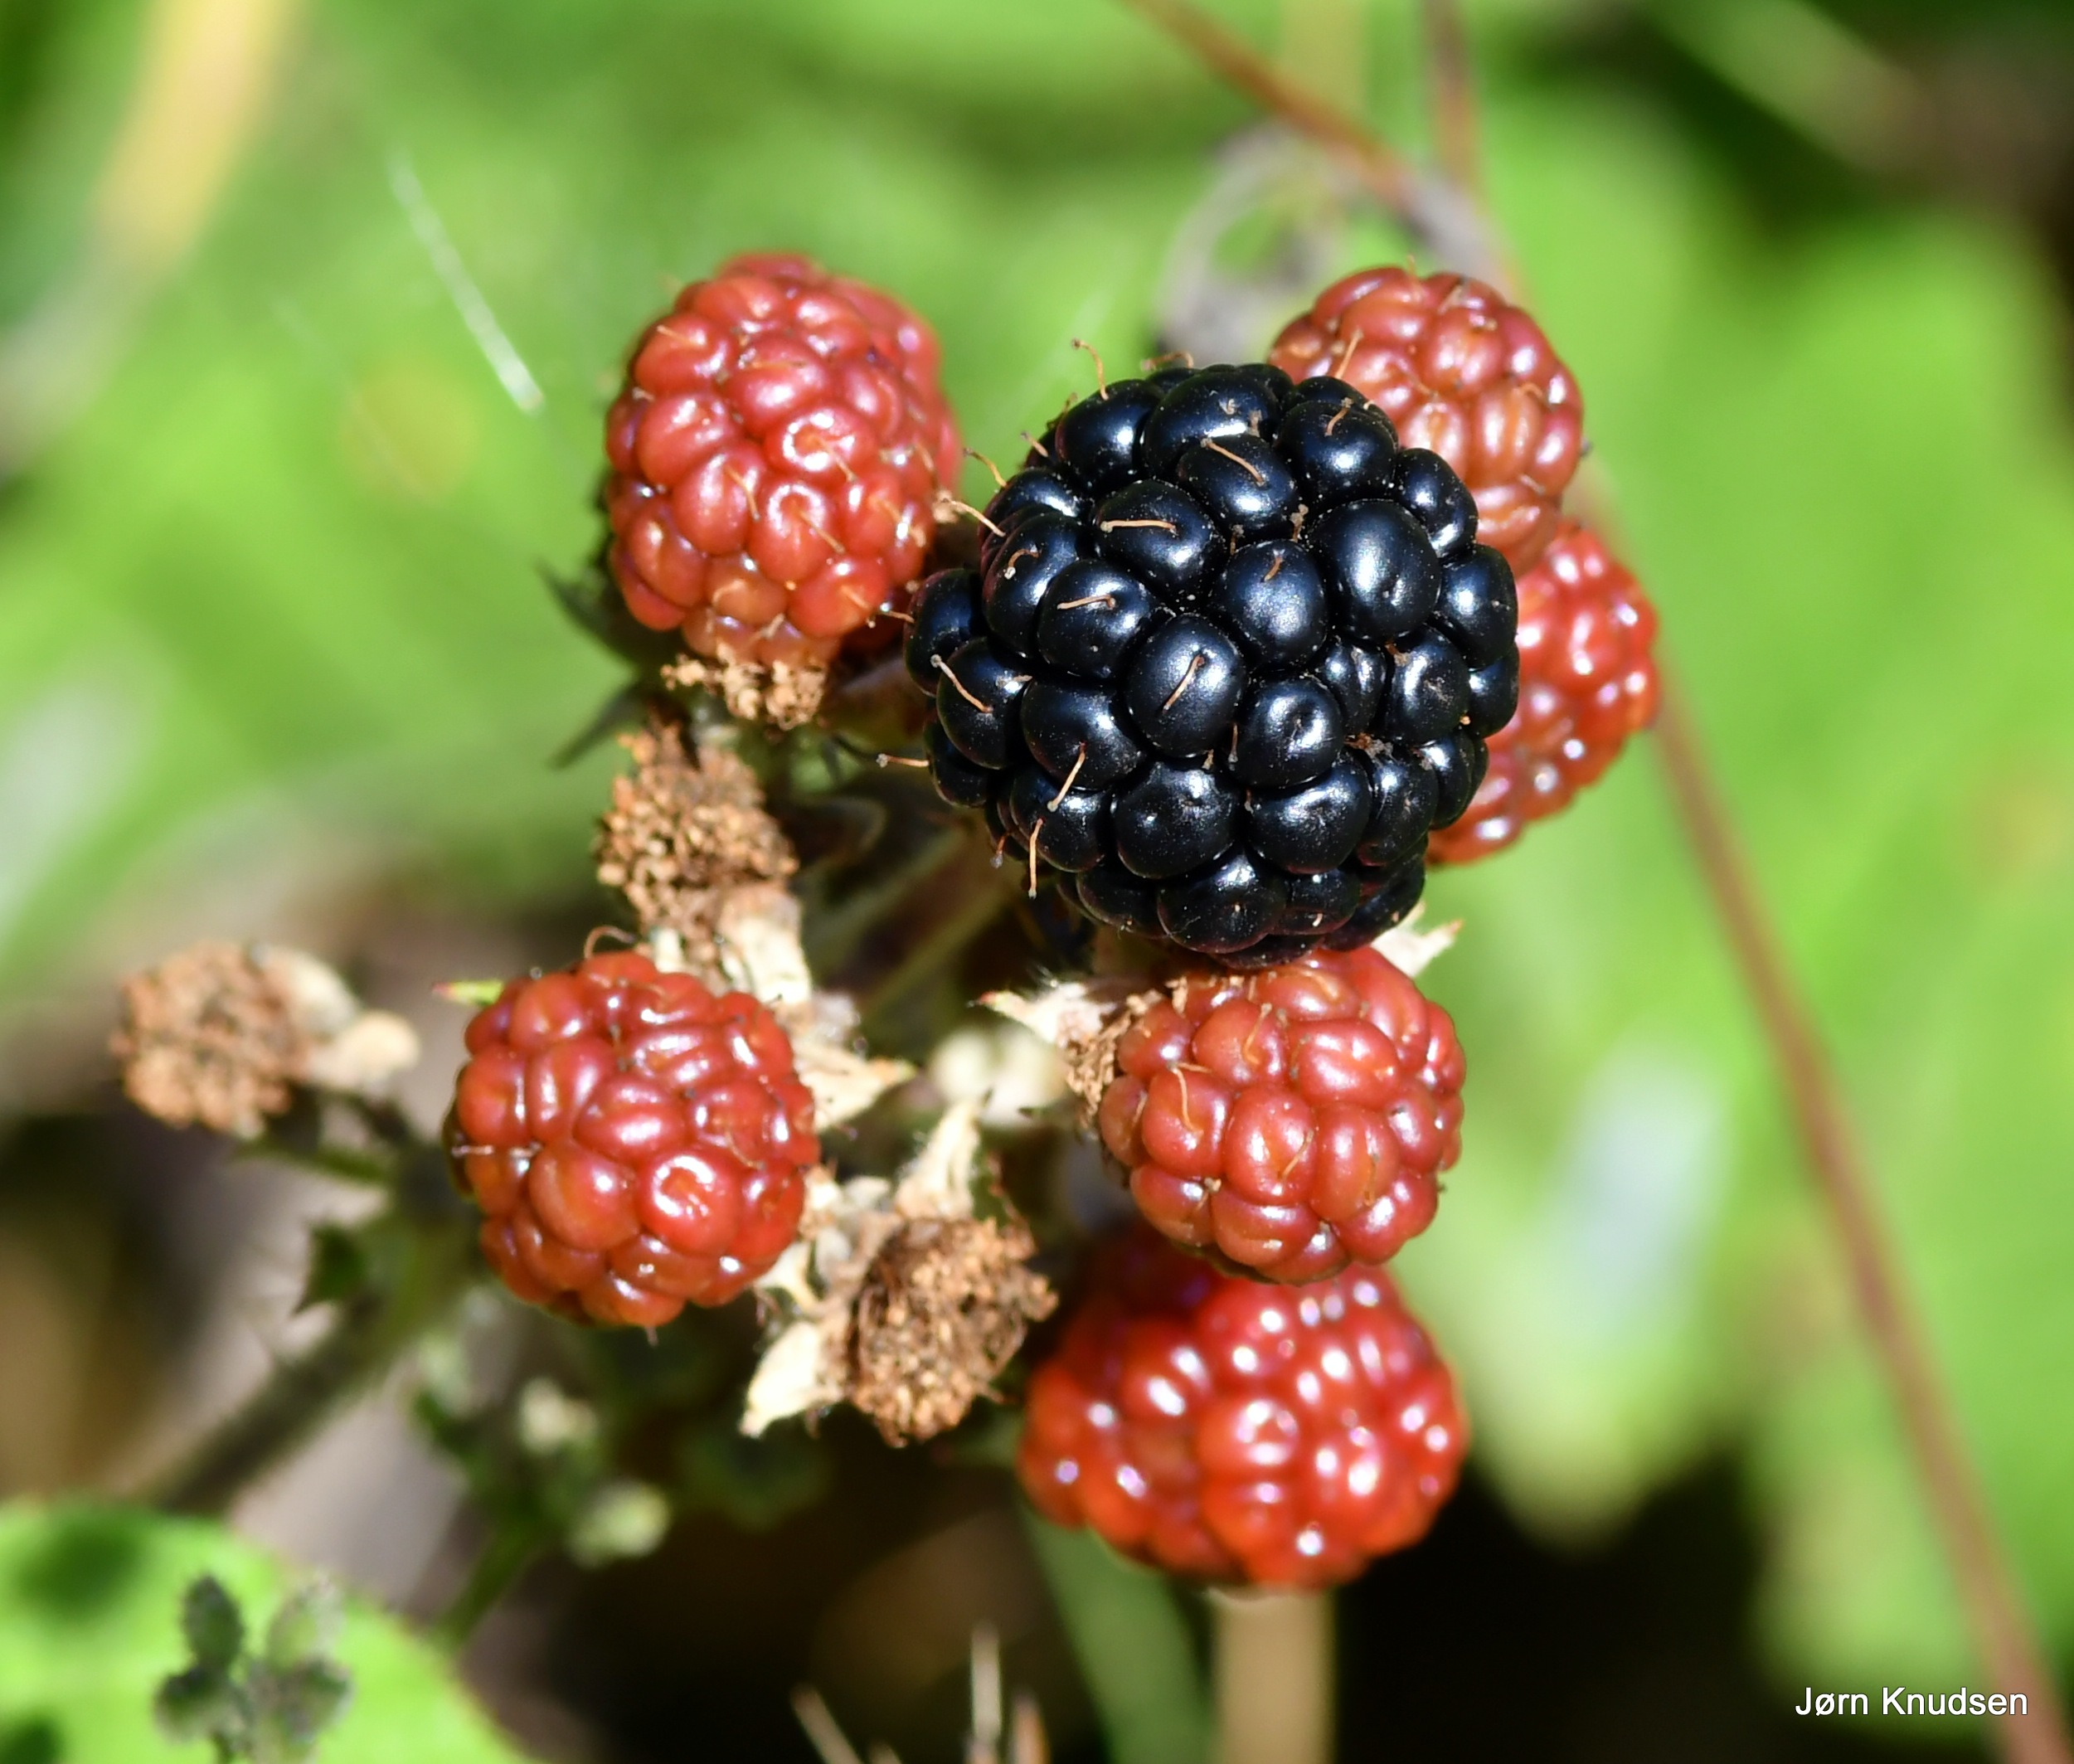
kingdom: Plantae
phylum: Tracheophyta
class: Magnoliopsida
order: Rosales
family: Rosaceae
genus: Rubus
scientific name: Rubus
